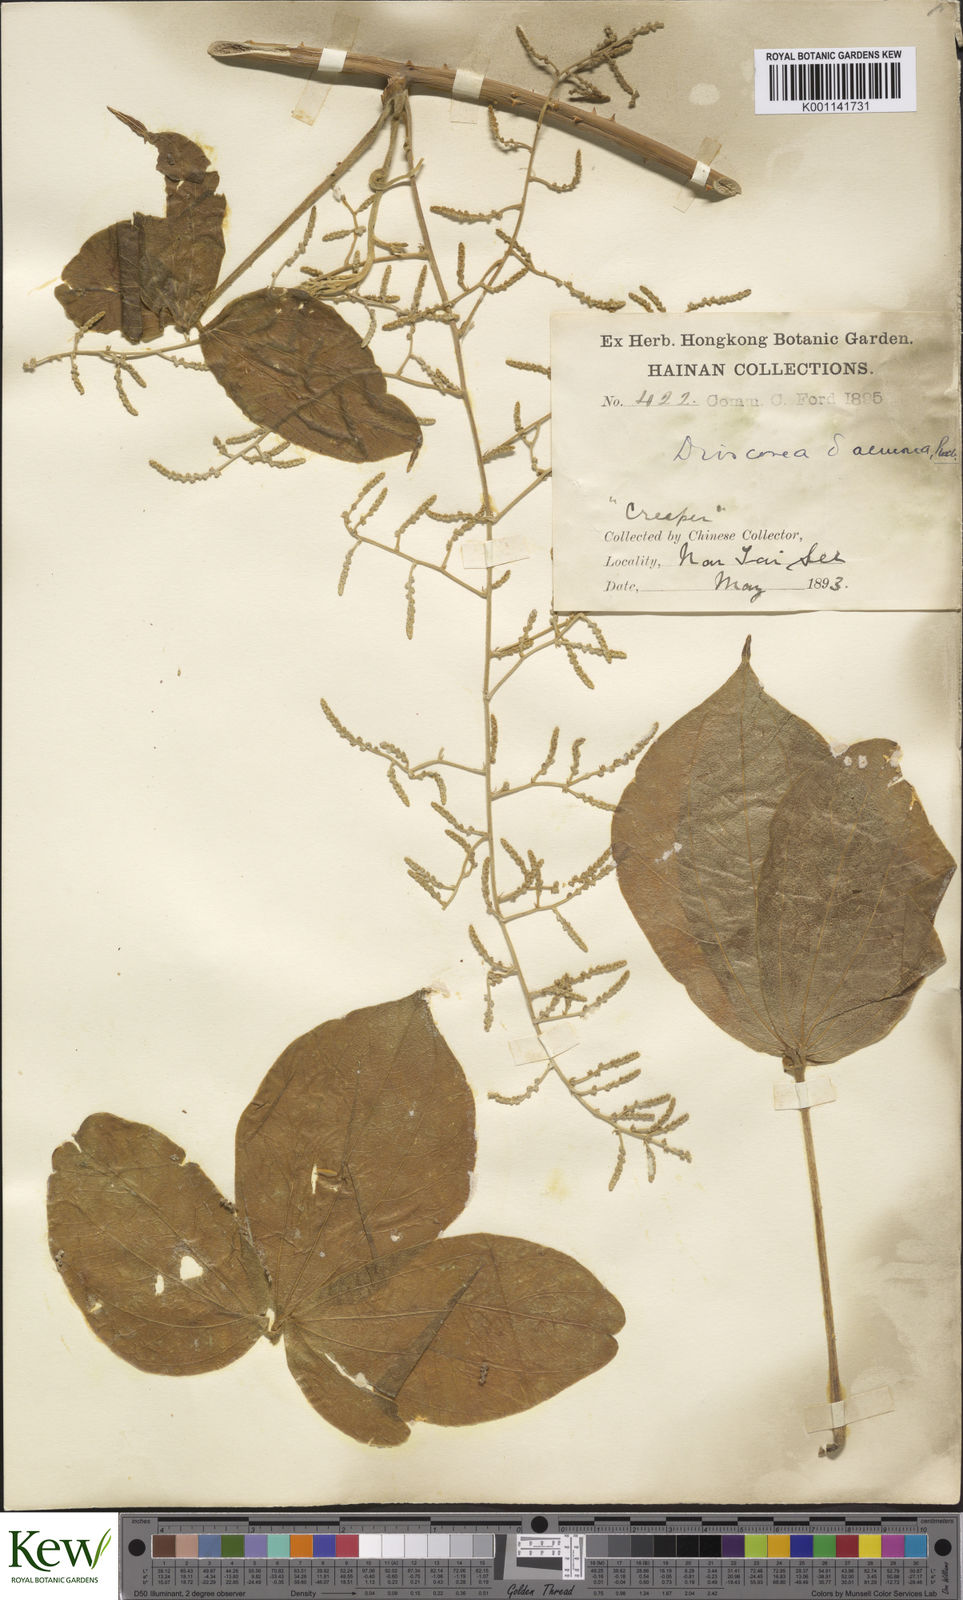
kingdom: Plantae
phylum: Tracheophyta
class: Liliopsida
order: Dioscoreales
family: Dioscoreaceae
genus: Dioscorea
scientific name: Dioscorea hispida
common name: Asiatic bitter yam
